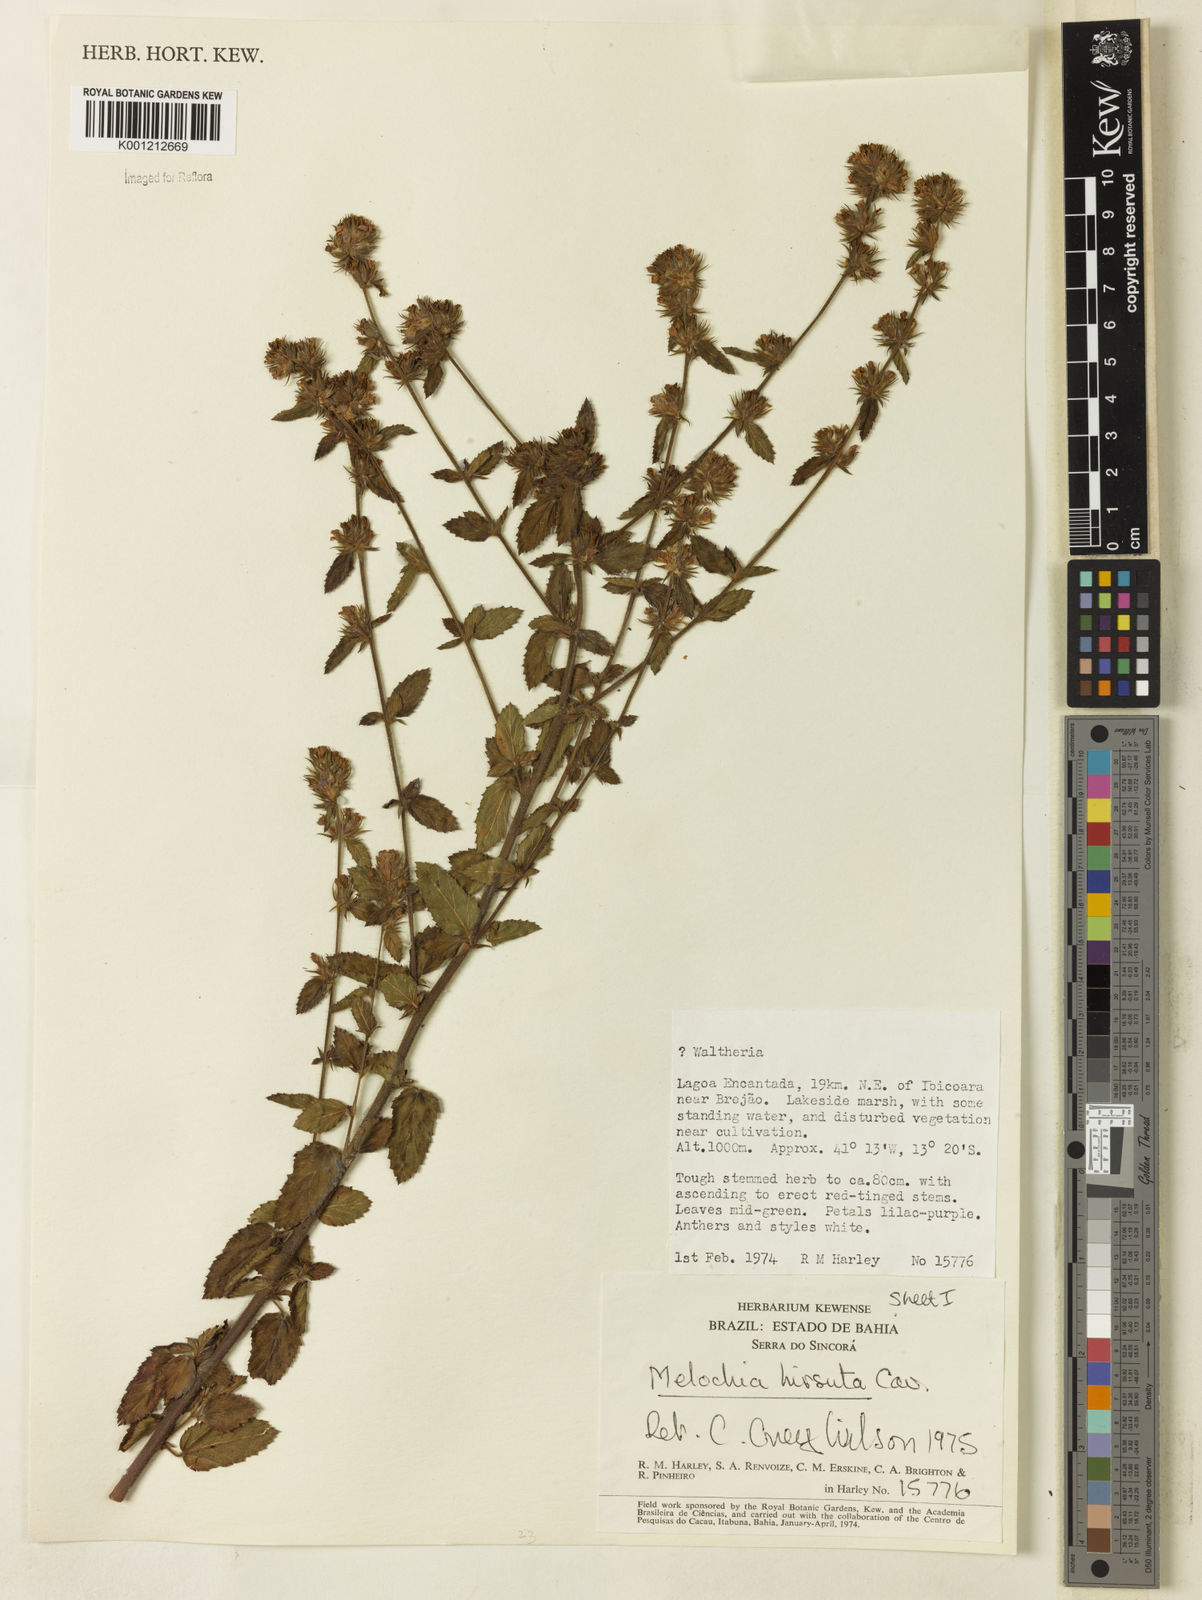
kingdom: Plantae
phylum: Tracheophyta
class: Magnoliopsida
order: Malvales
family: Malvaceae
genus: Melochia
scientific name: Melochia spicata
